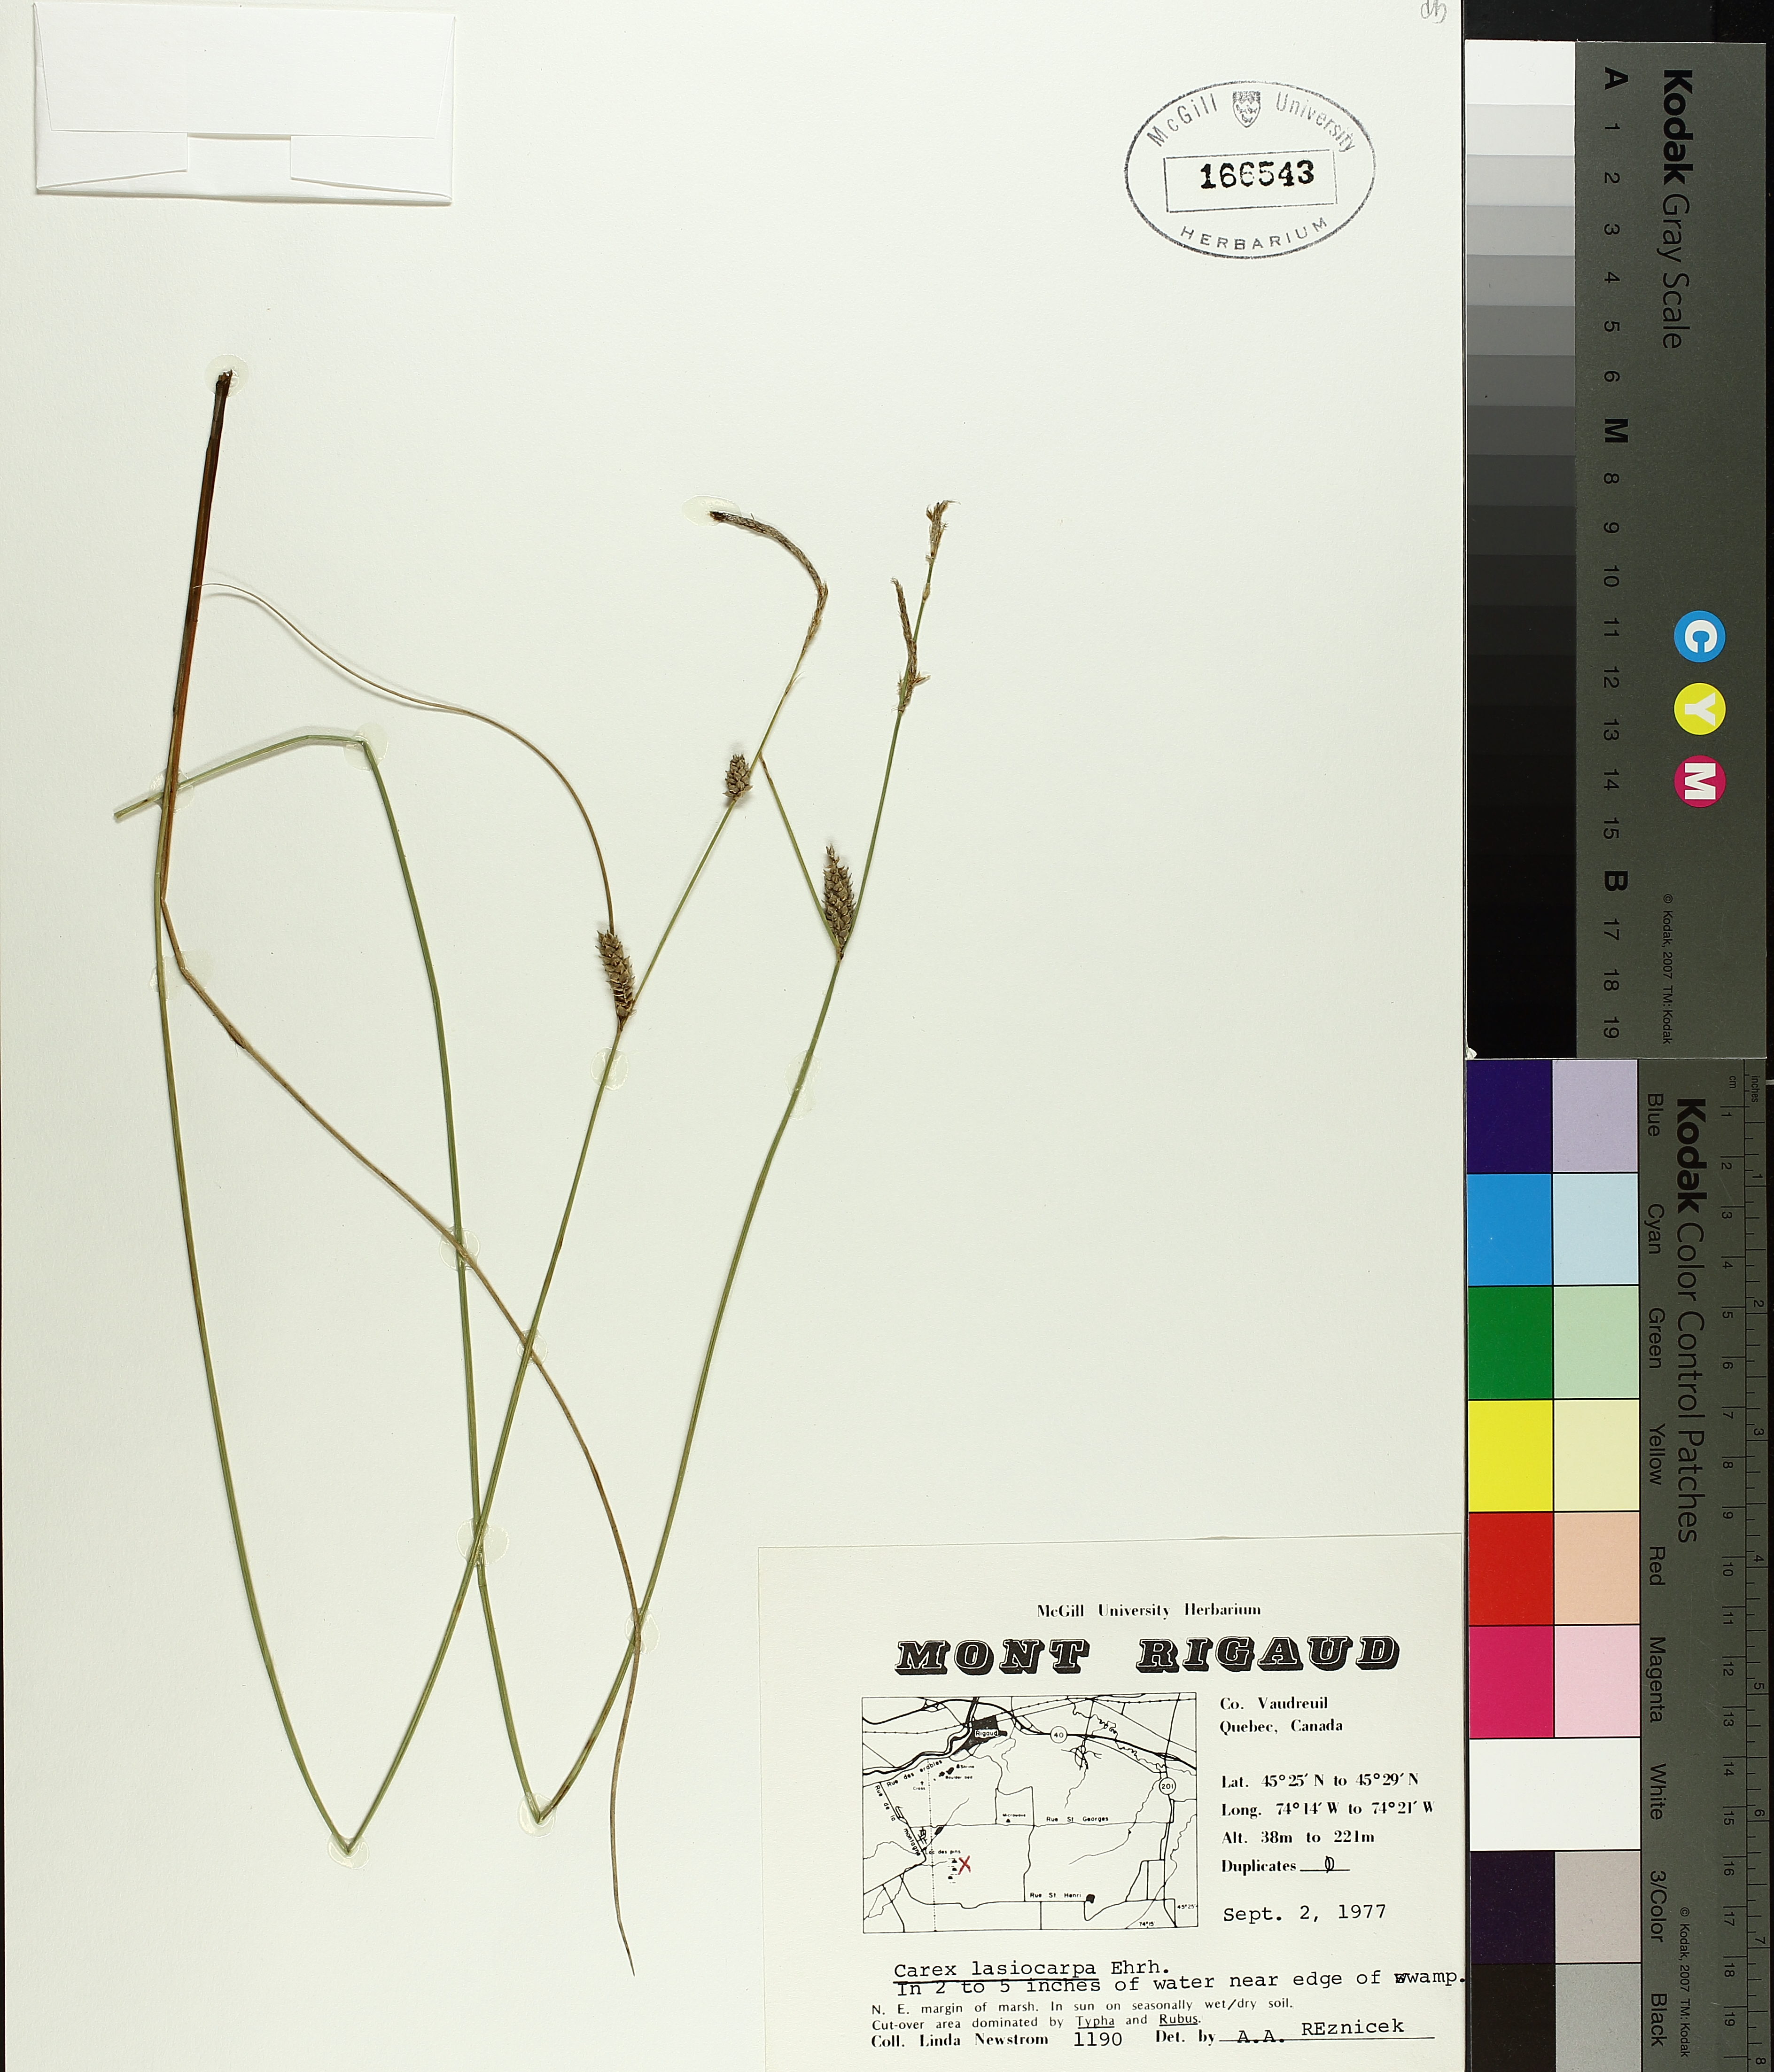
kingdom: Plantae
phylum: Tracheophyta
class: Liliopsida
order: Poales
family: Cyperaceae
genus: Carex
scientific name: Carex lasiocarpa
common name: Slender sedge
